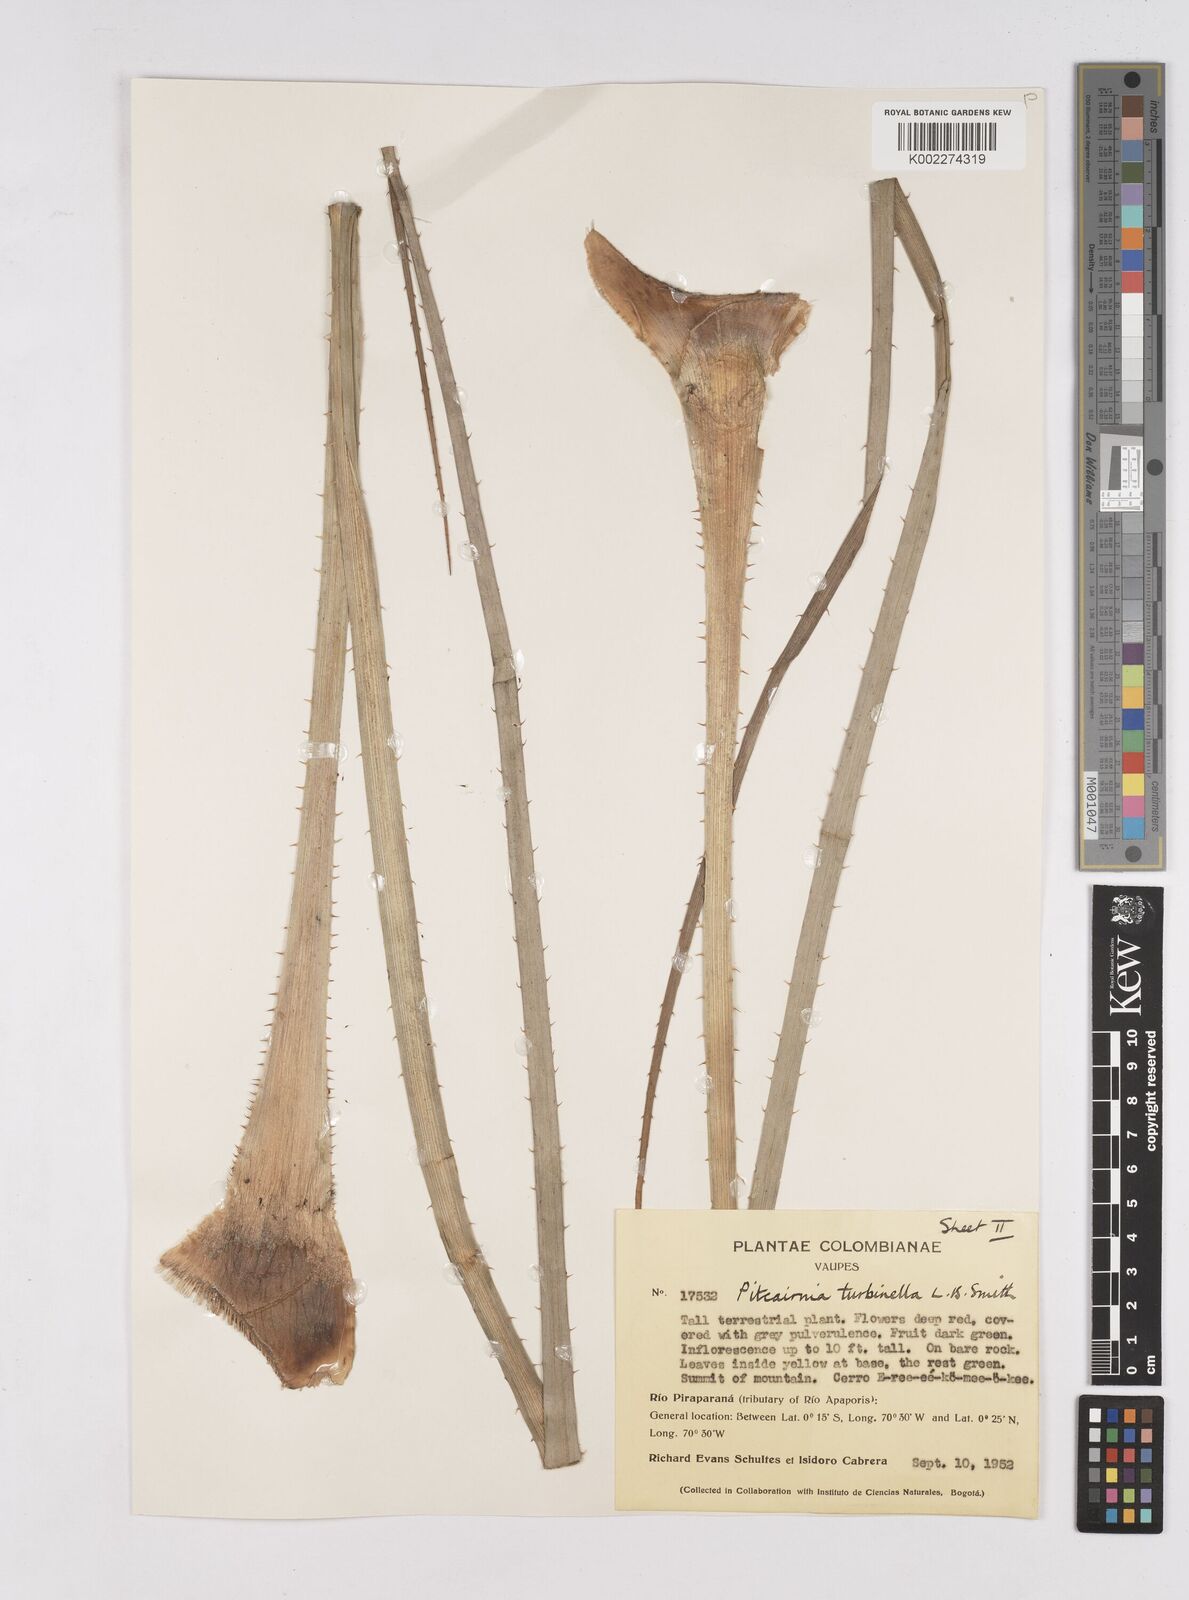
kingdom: Plantae
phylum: Tracheophyta
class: Liliopsida
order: Poales
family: Bromeliaceae
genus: Pitcairnia
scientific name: Pitcairnia turbinella
